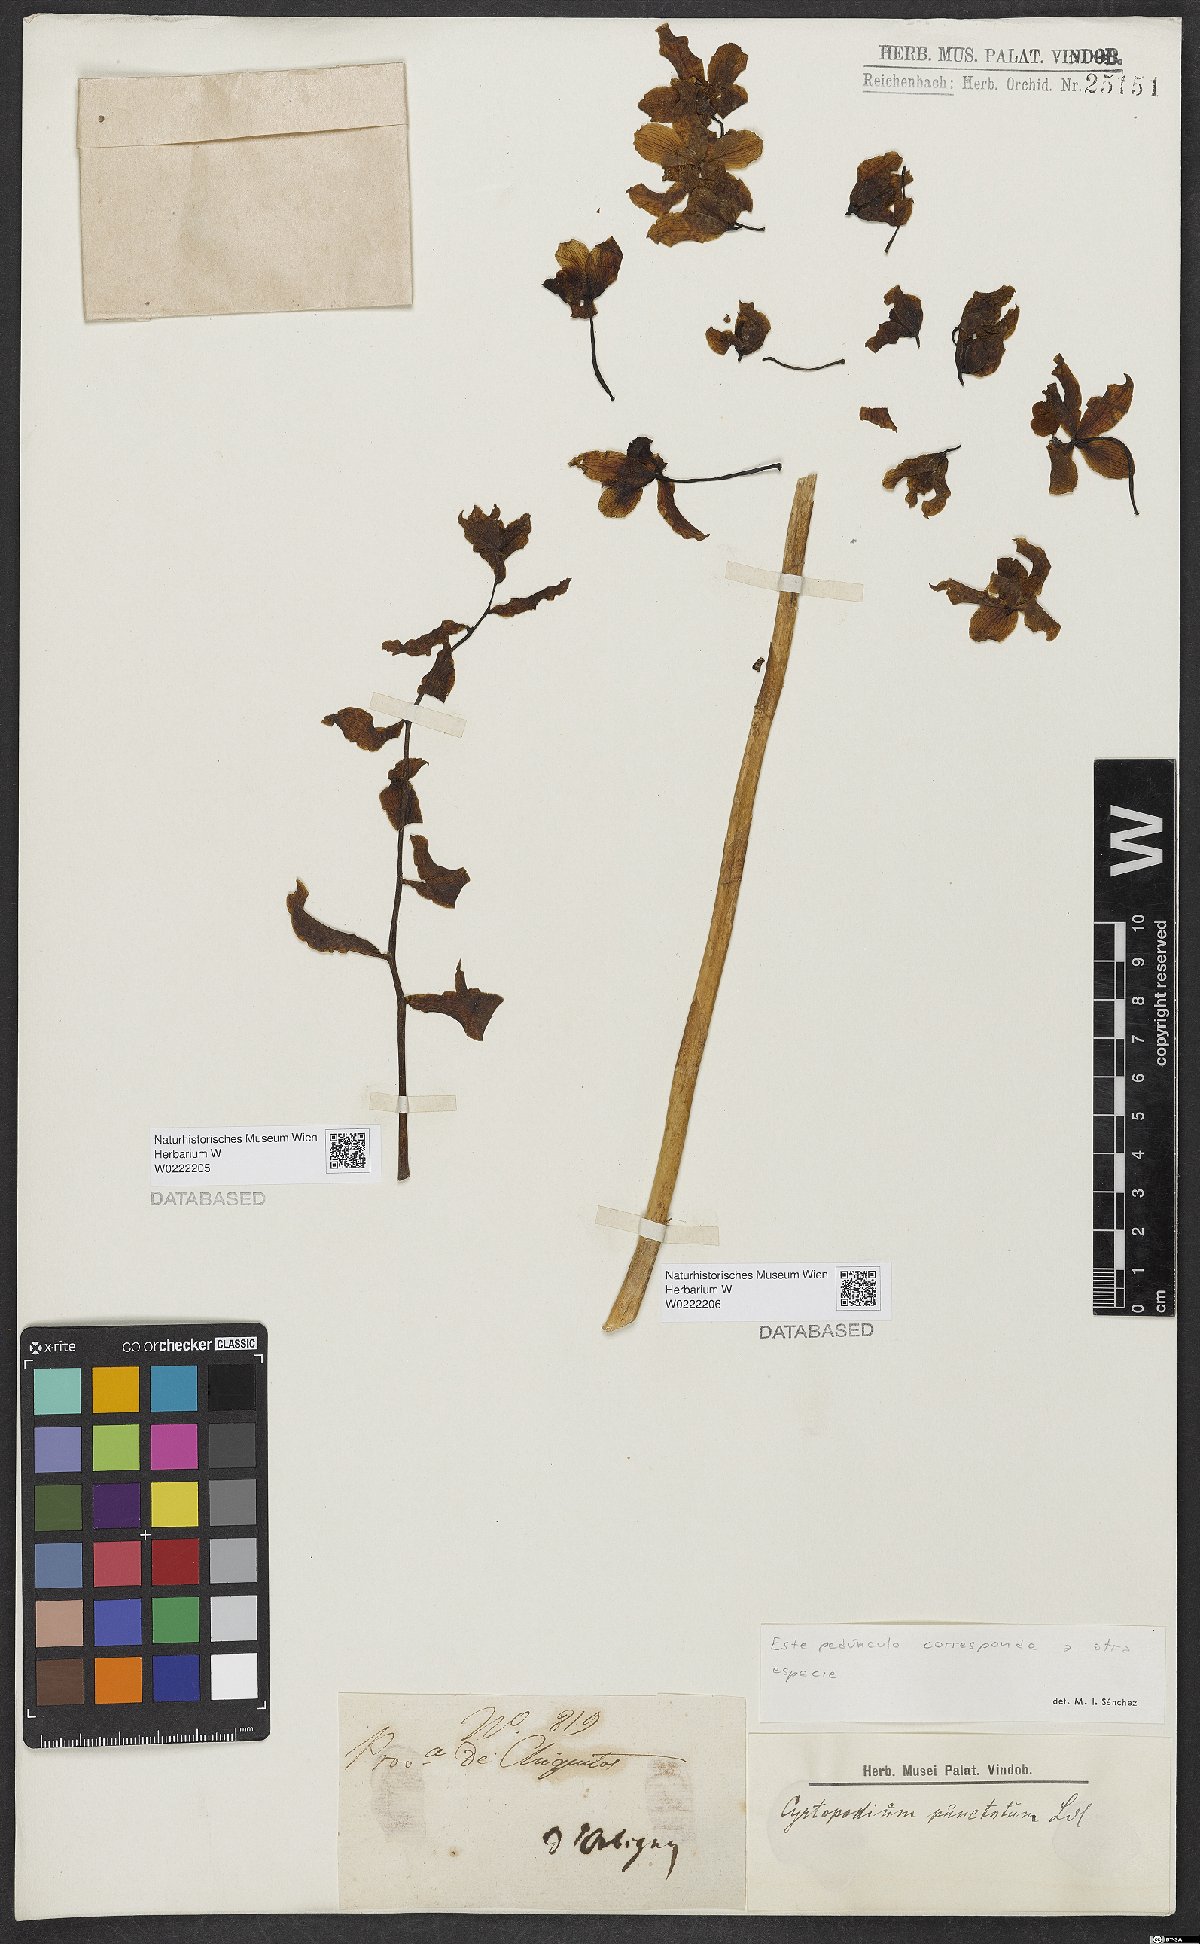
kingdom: Plantae
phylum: Tracheophyta
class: Liliopsida
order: Asparagales
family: Orchidaceae
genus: Cyrtopodium
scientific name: Cyrtopodium punctatum
